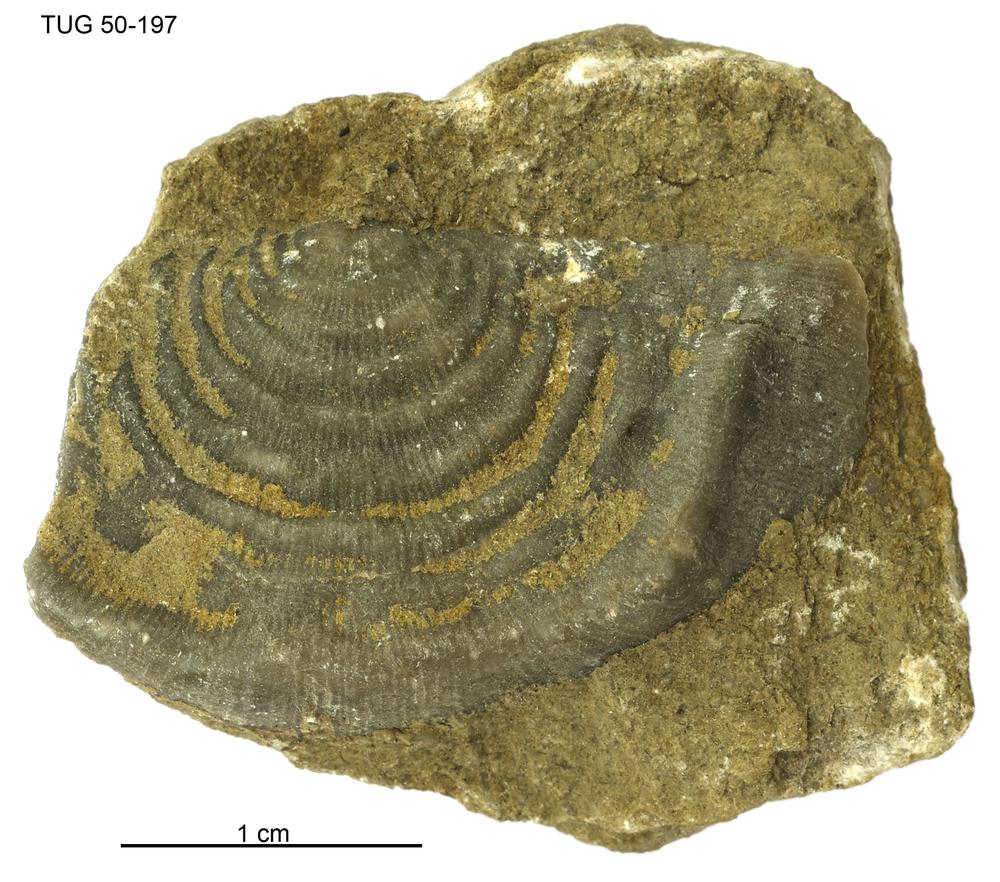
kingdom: Animalia
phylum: Brachiopoda
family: Strophomenidae
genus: Leptaena
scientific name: Leptaena Similoleptaena paucirugata
